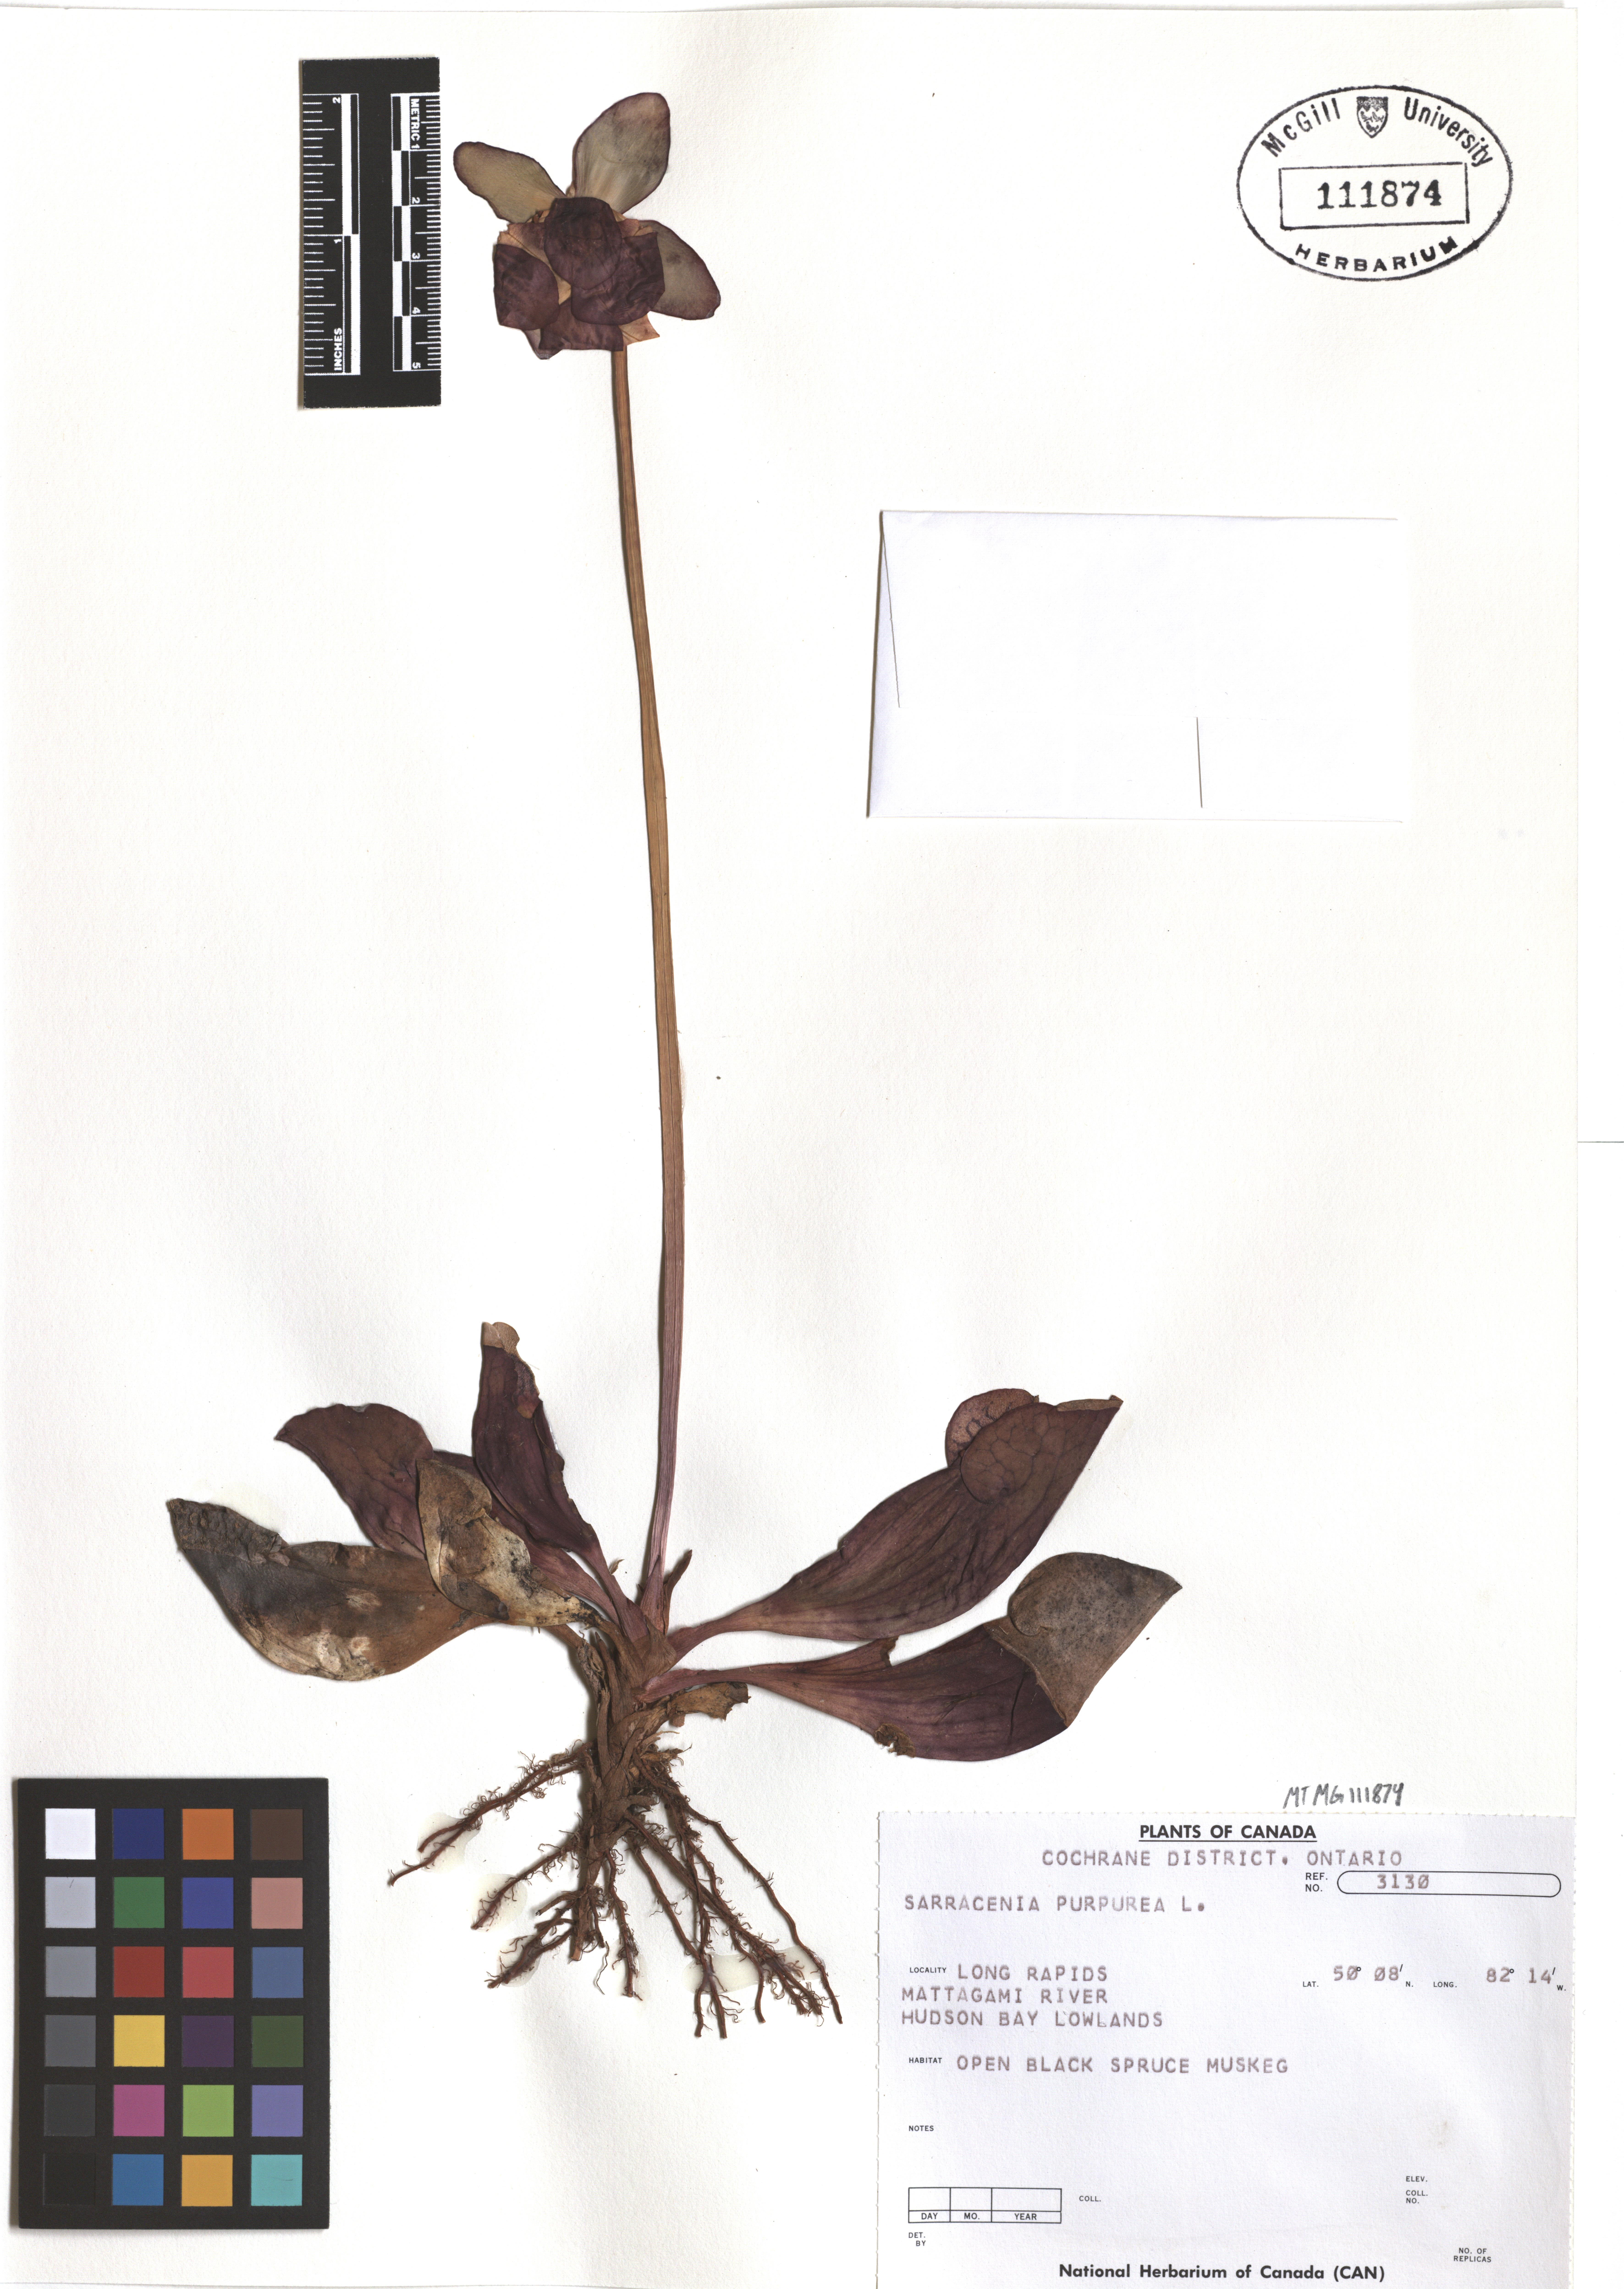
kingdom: Plantae
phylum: Tracheophyta
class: Magnoliopsida
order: Ericales
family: Sarraceniaceae
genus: Sarracenia
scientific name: Sarracenia purpurea
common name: Pitcherplant
